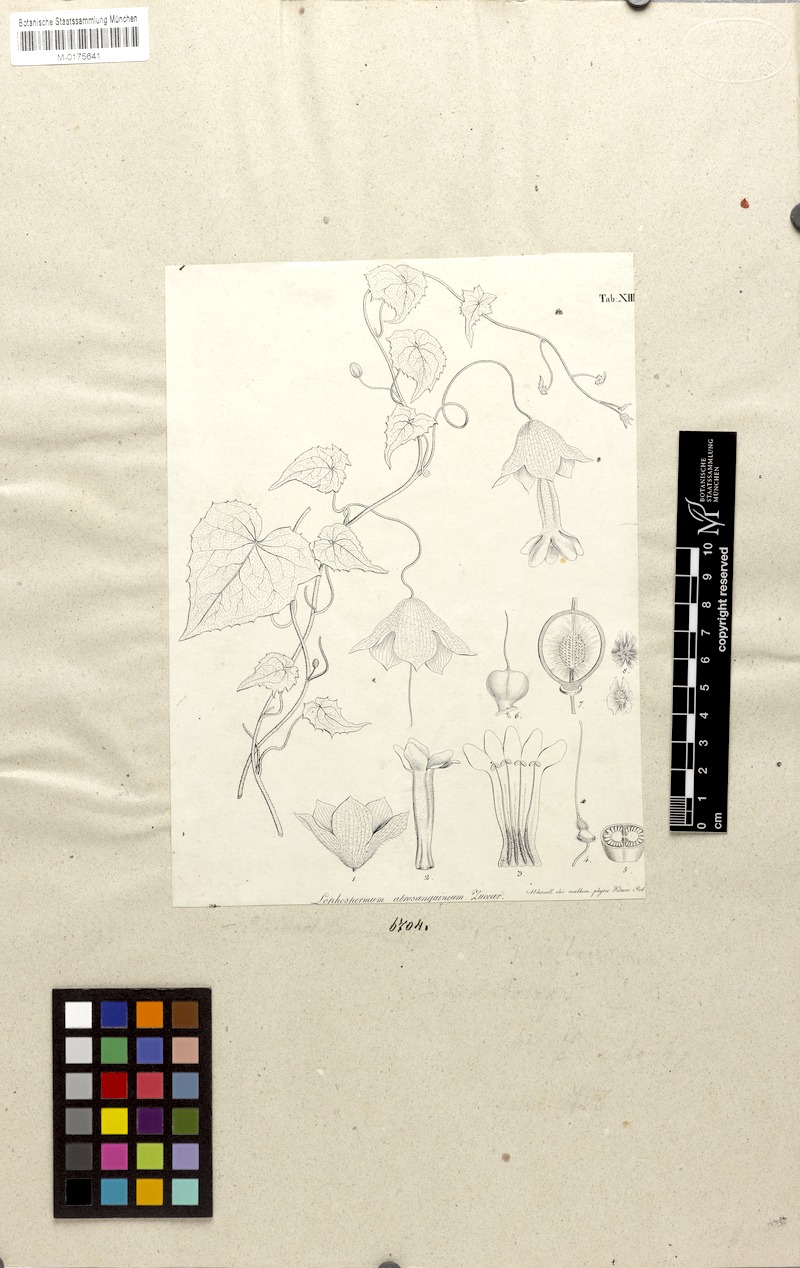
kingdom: Plantae
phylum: Tracheophyta
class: Magnoliopsida
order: Lamiales
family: Plantaginaceae
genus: Rhodochiton
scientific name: Rhodochiton atrosanguineus
